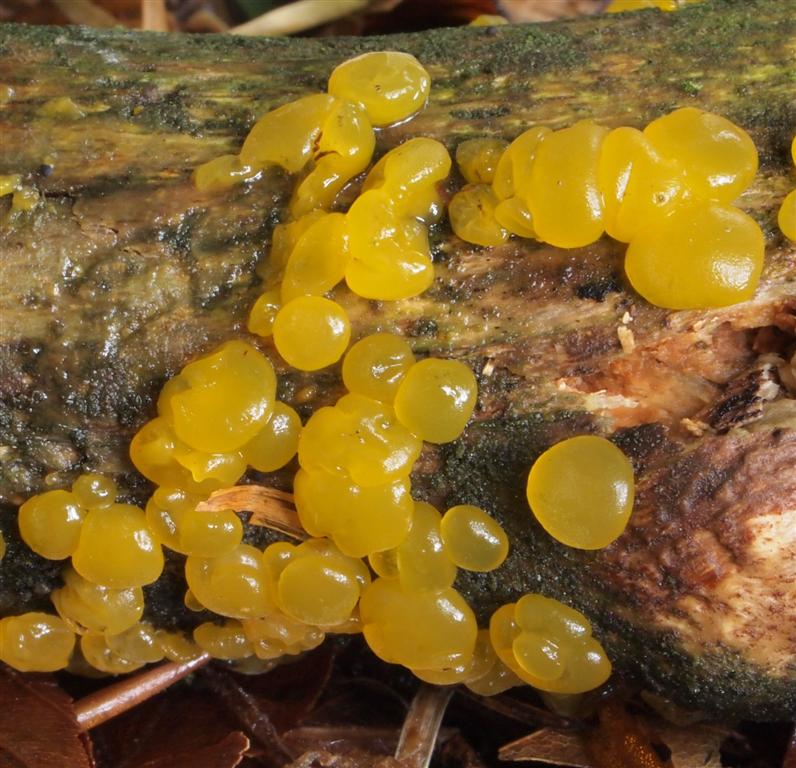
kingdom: Fungi
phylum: Basidiomycota
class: Dacrymycetes
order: Dacrymycetales
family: Dacrymycetaceae
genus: Dacrymyces
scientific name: Dacrymyces lacrymalis
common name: rynket tåresvamp
